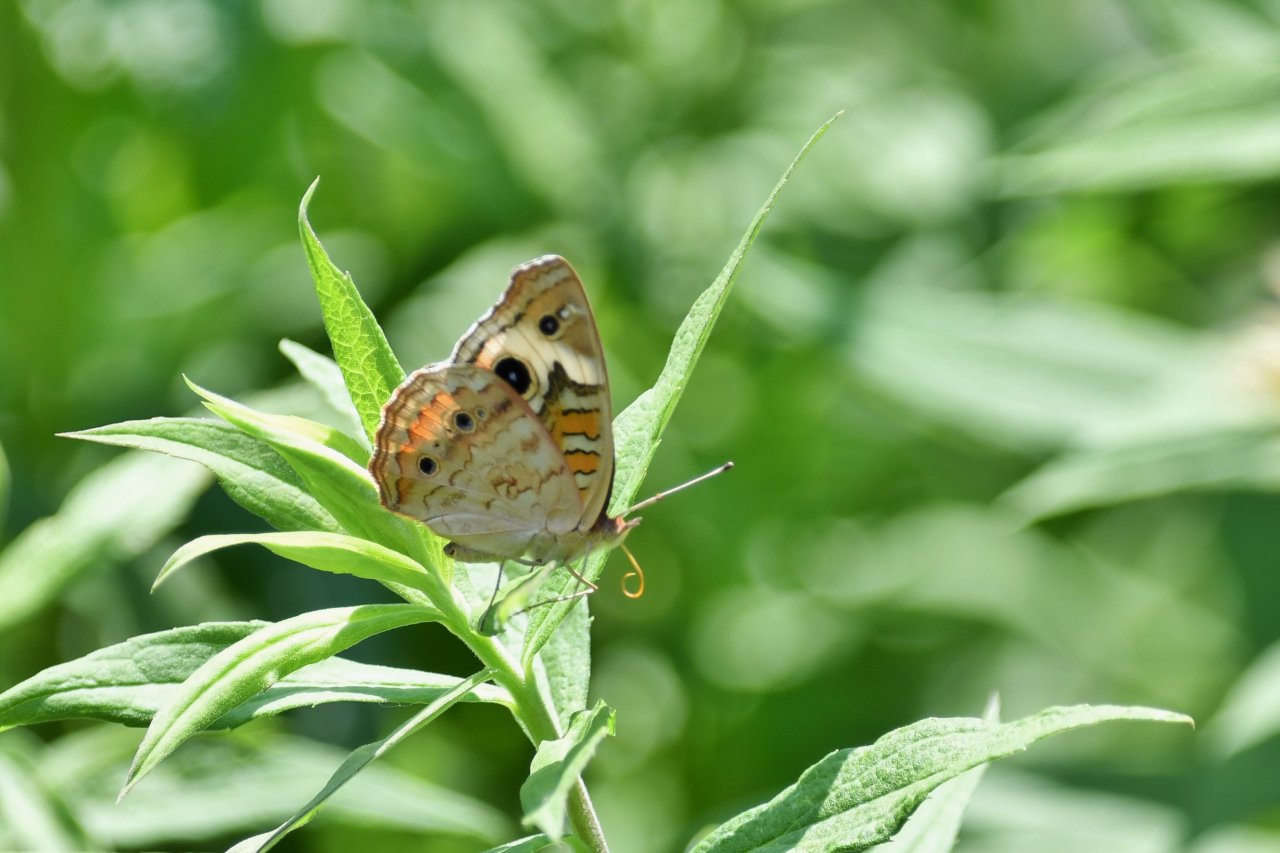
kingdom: Animalia
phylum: Arthropoda
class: Insecta
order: Lepidoptera
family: Nymphalidae
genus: Junonia
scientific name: Junonia coenia
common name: Common Buckeye
